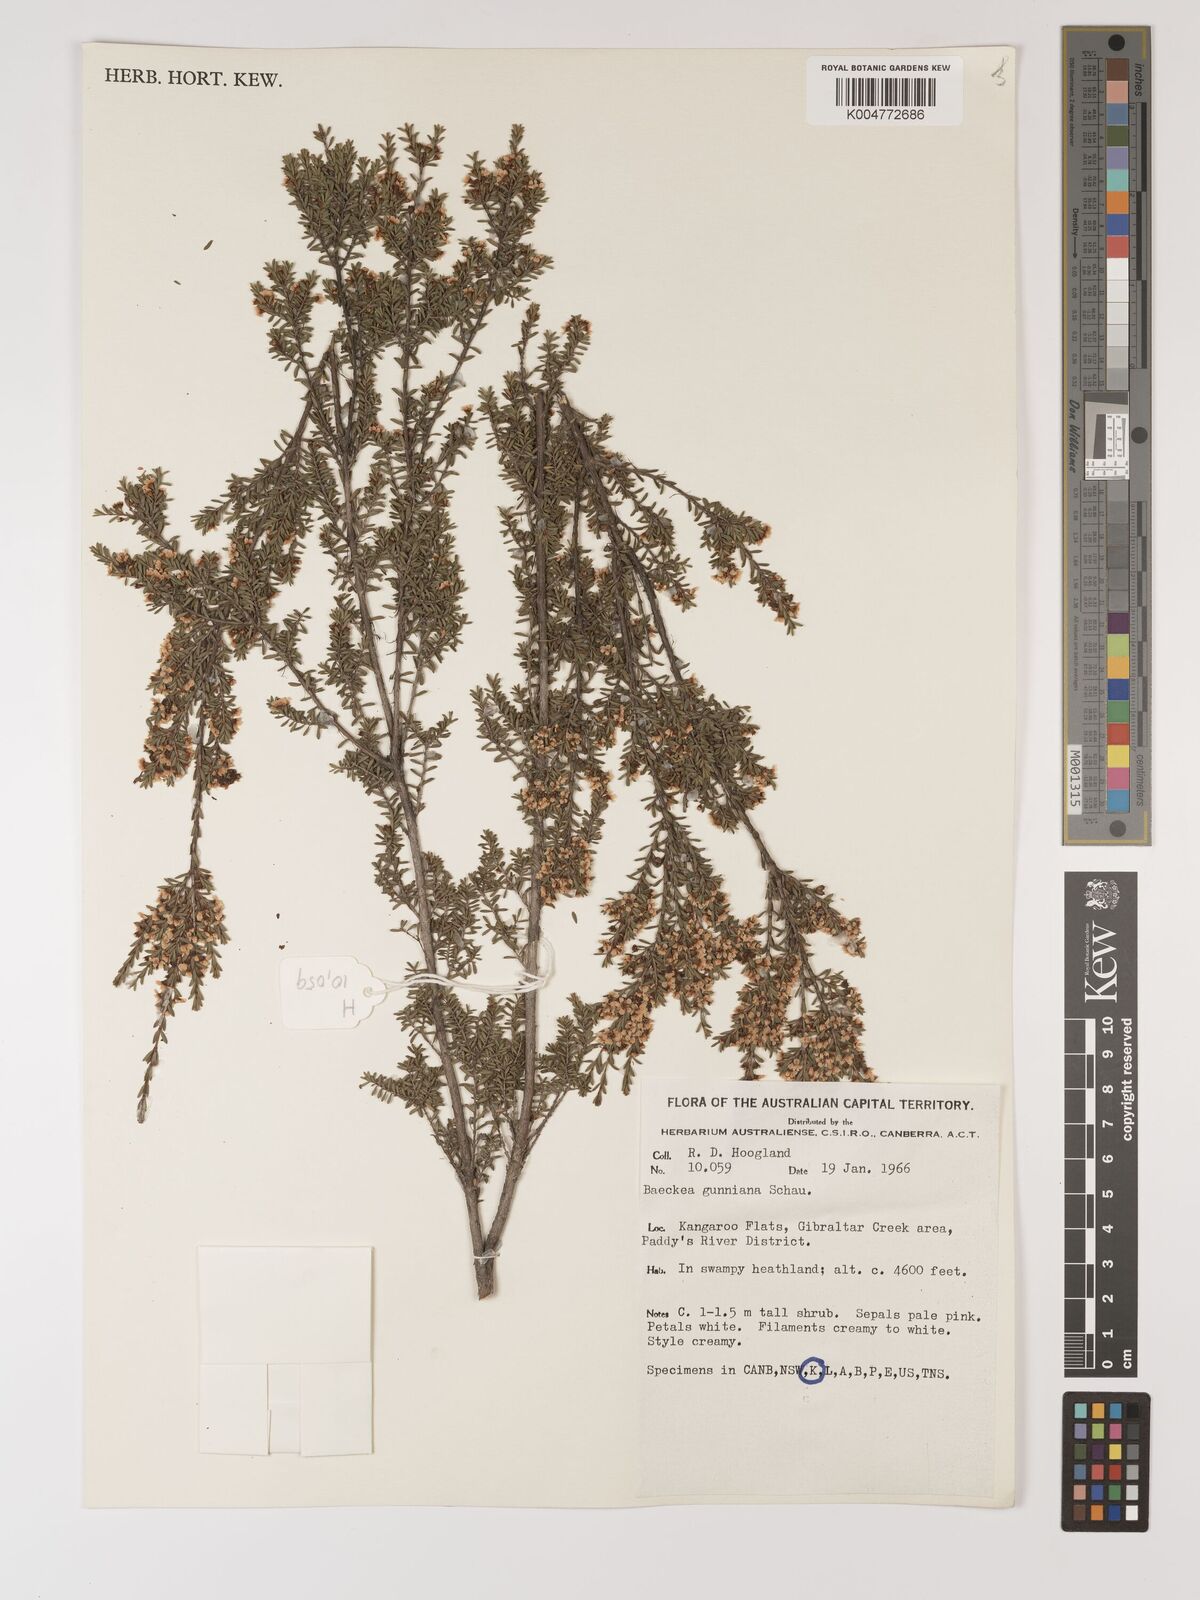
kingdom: Plantae
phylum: Tracheophyta
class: Magnoliopsida
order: Myrtales
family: Myrtaceae
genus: Baeckea
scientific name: Baeckea gunniana
